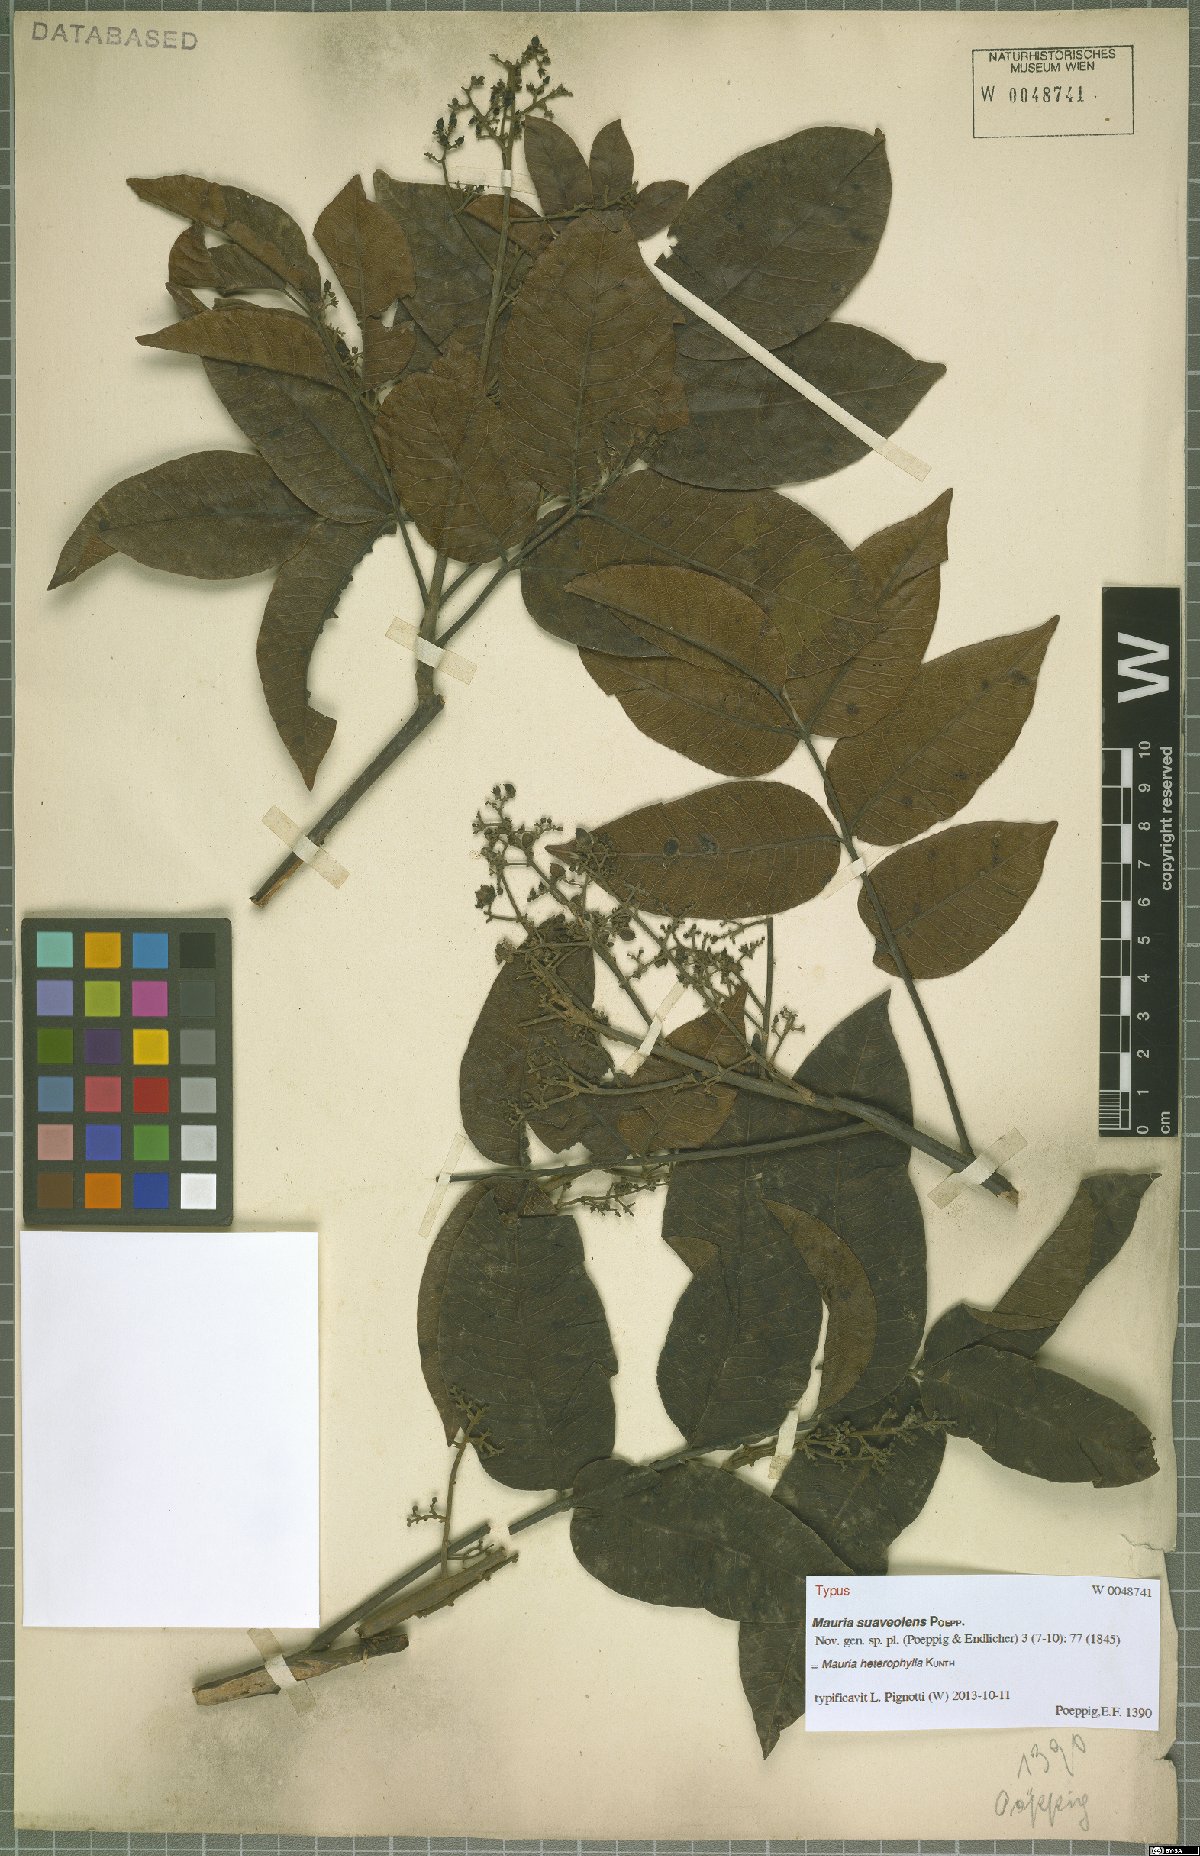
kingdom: Plantae
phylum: Tracheophyta
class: Magnoliopsida
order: Sapindales
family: Anacardiaceae
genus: Mauria
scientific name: Mauria heterophylla
